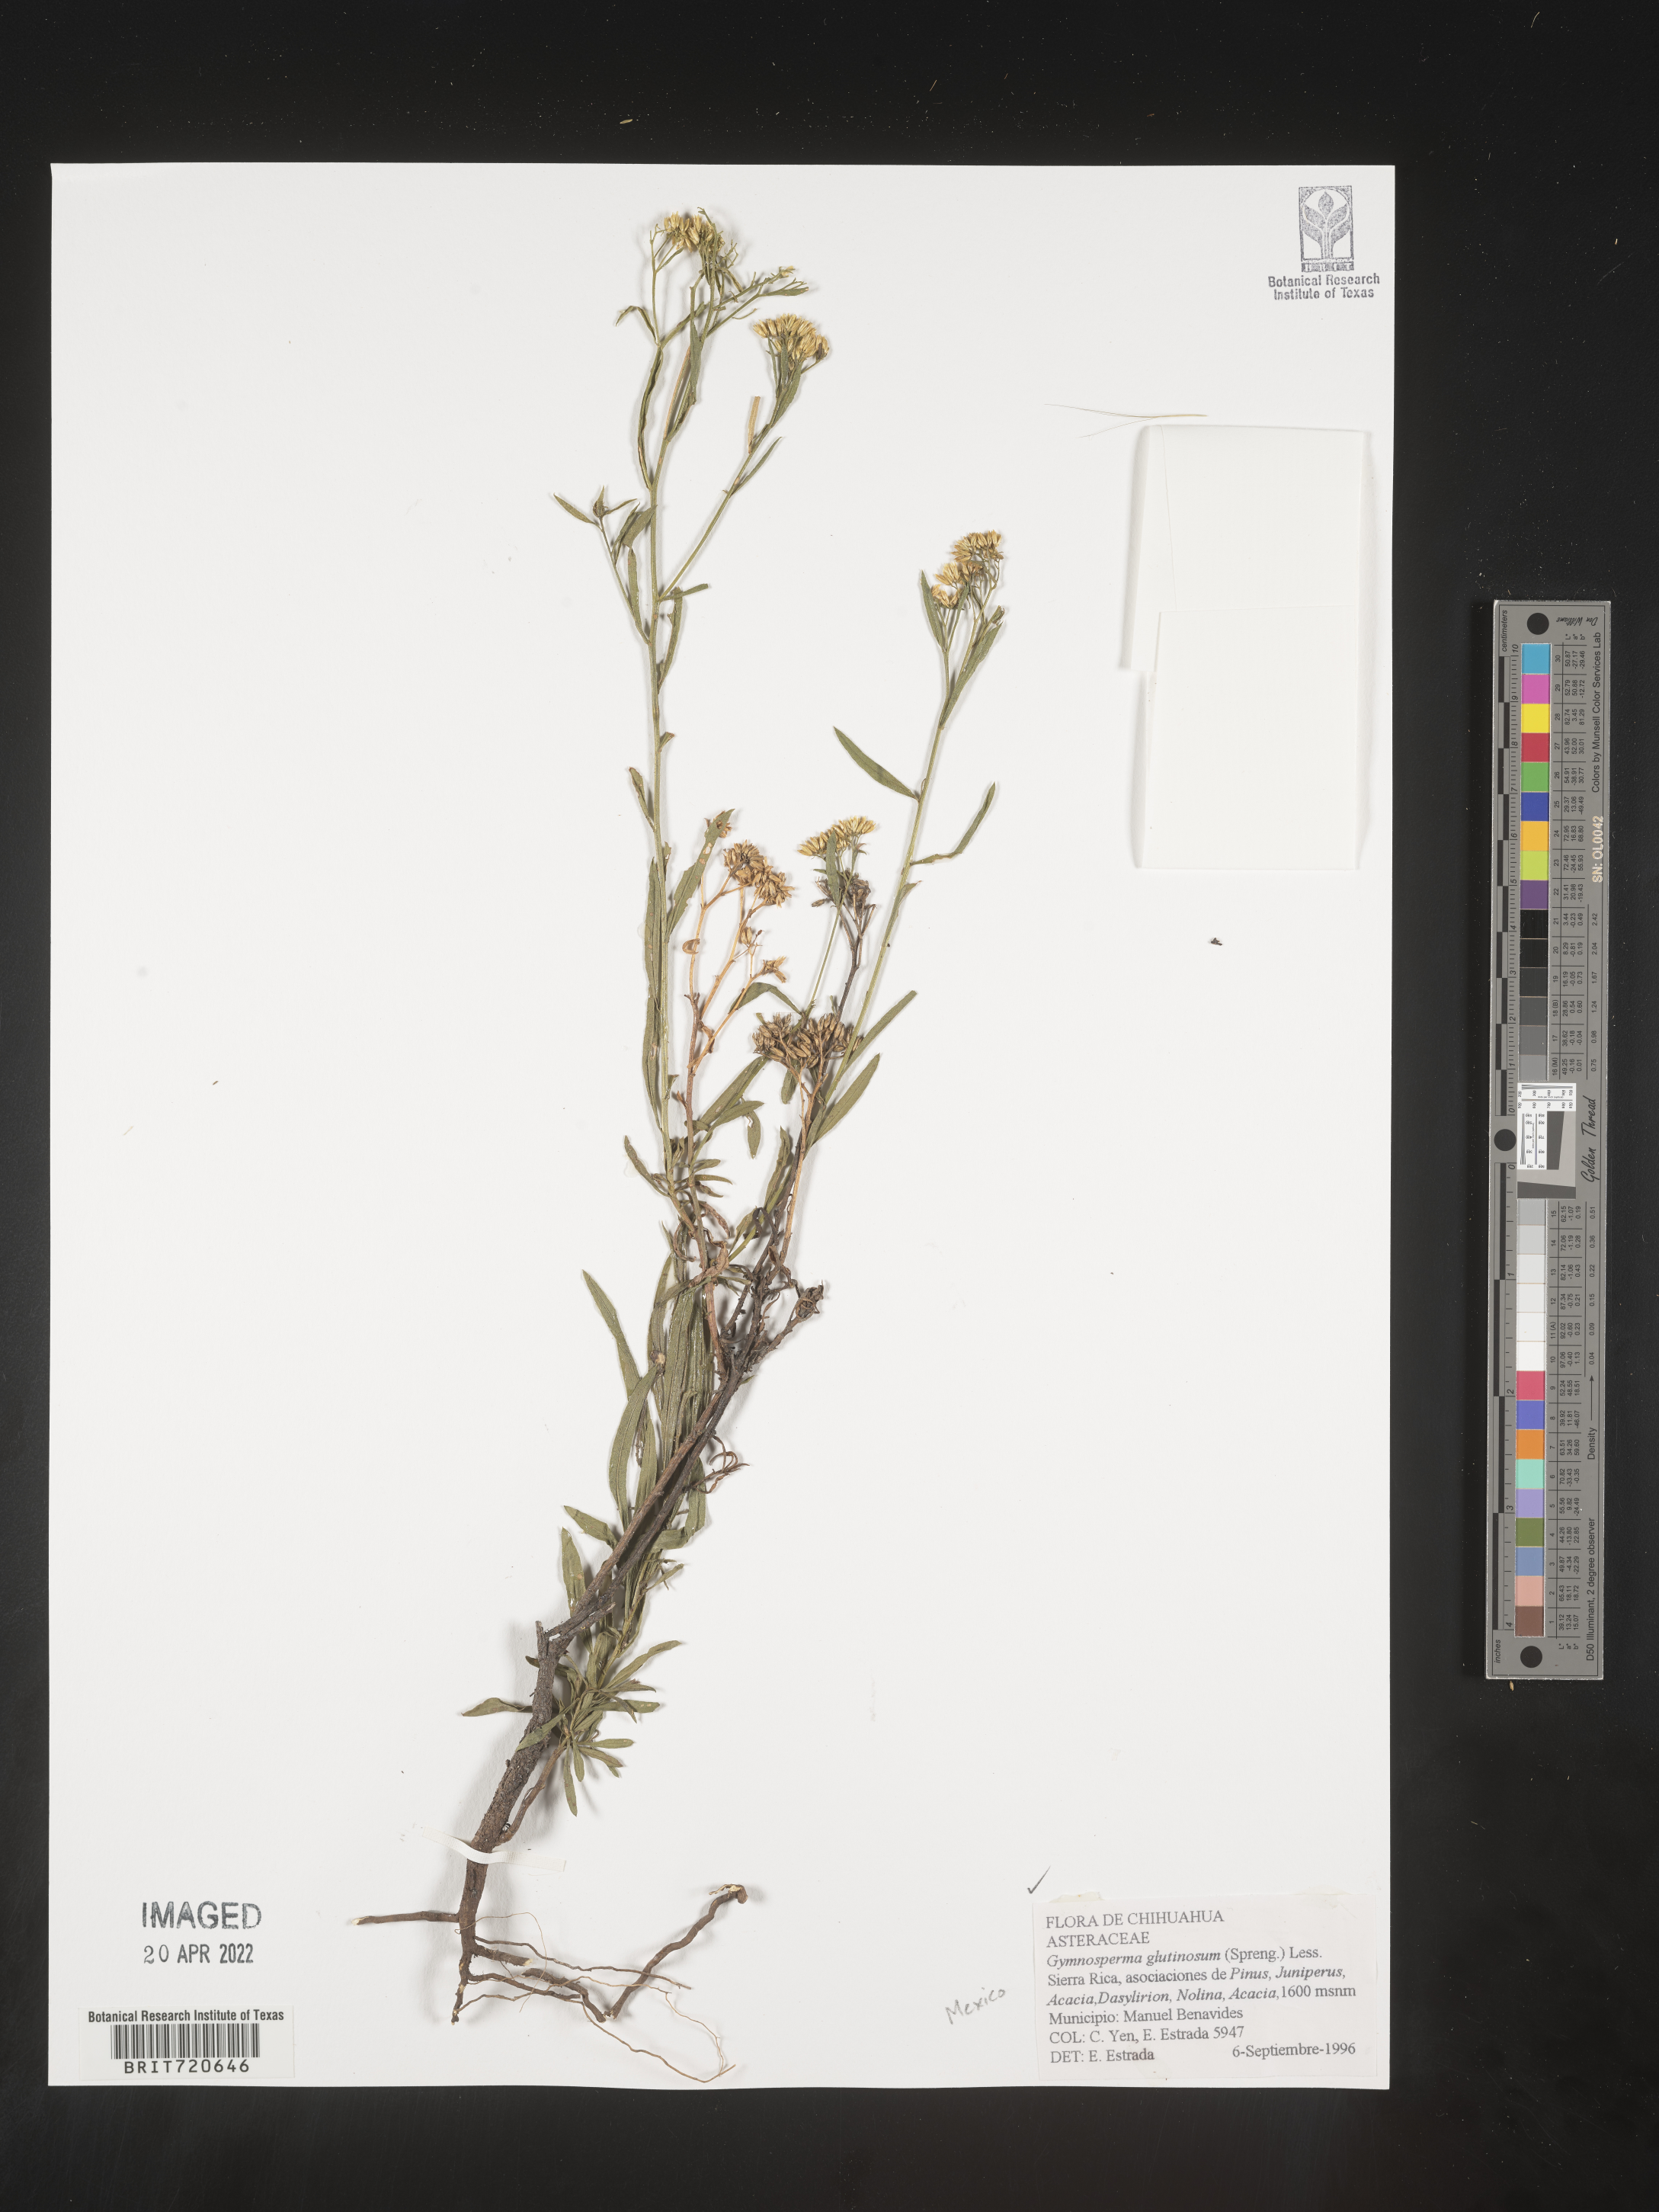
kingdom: Plantae
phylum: Tracheophyta
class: Magnoliopsida
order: Asterales
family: Asteraceae
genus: Gymnosperma
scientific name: Gymnosperma glutinosum
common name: Gumhead
